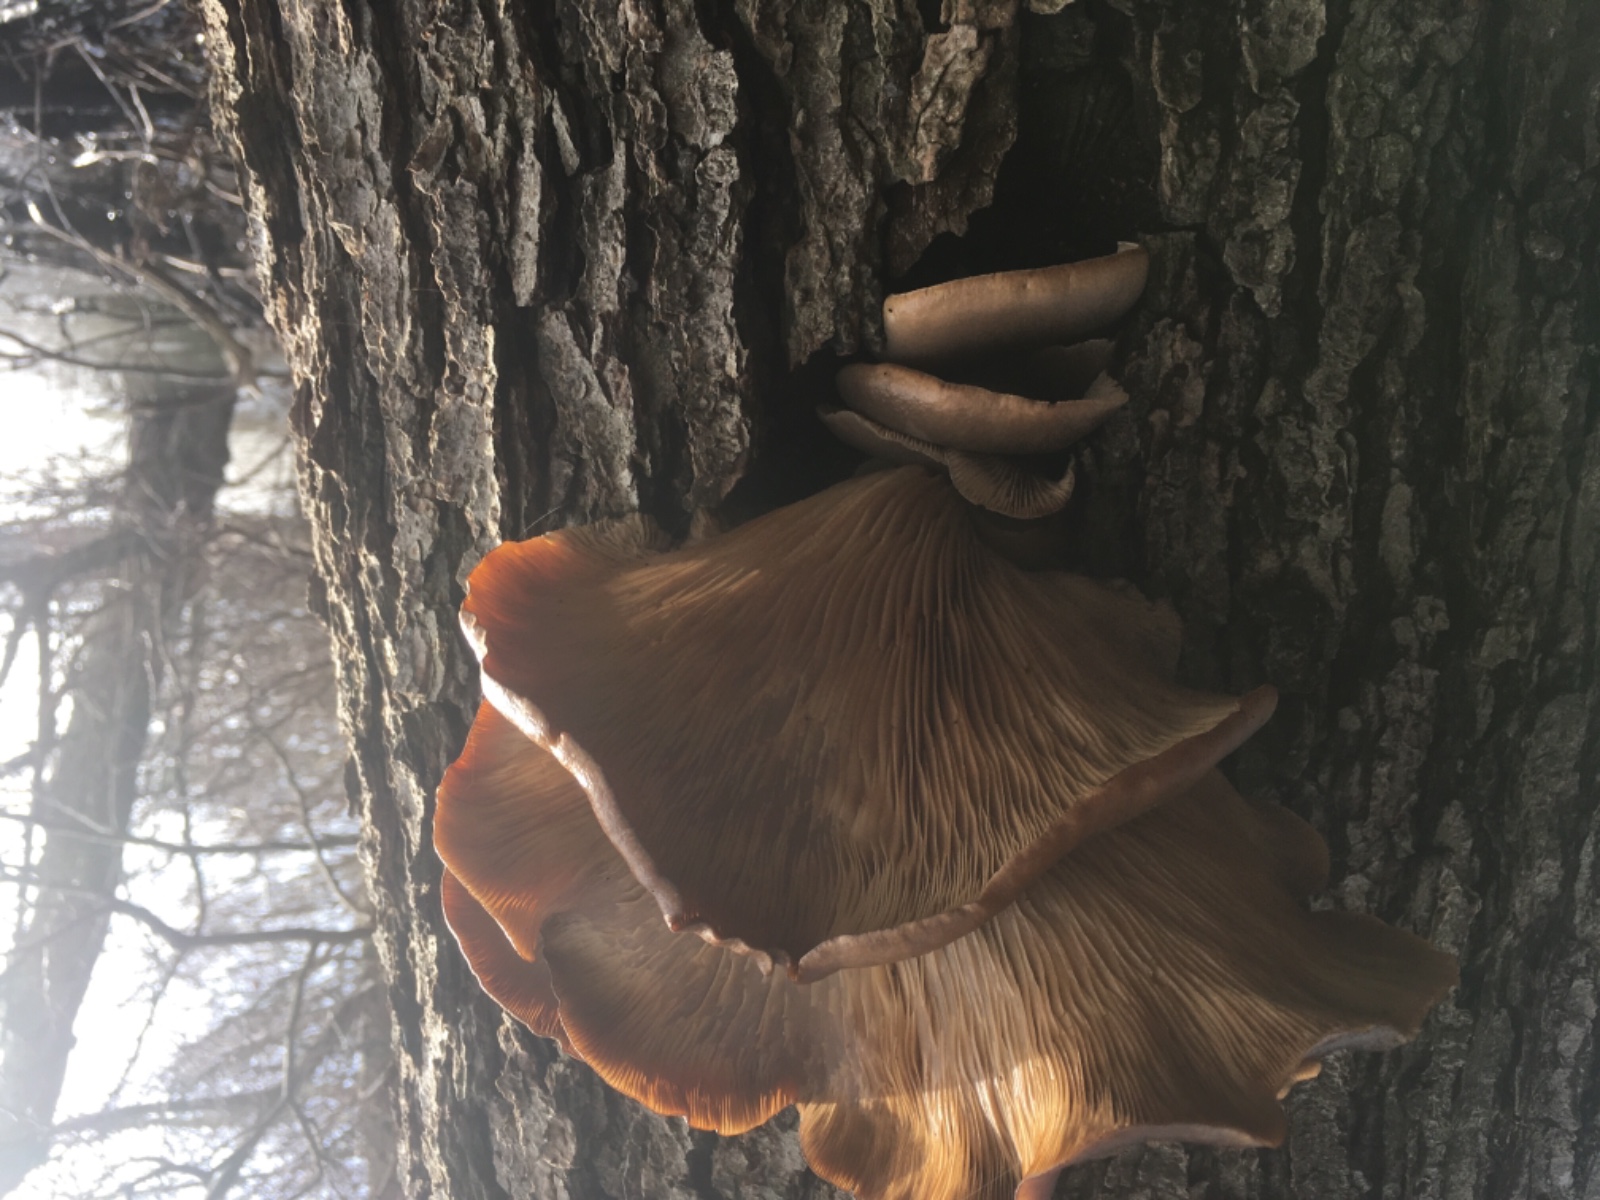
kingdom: Fungi
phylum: Basidiomycota
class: Agaricomycetes
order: Agaricales
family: Pleurotaceae
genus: Pleurotus
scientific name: Pleurotus ostreatus
